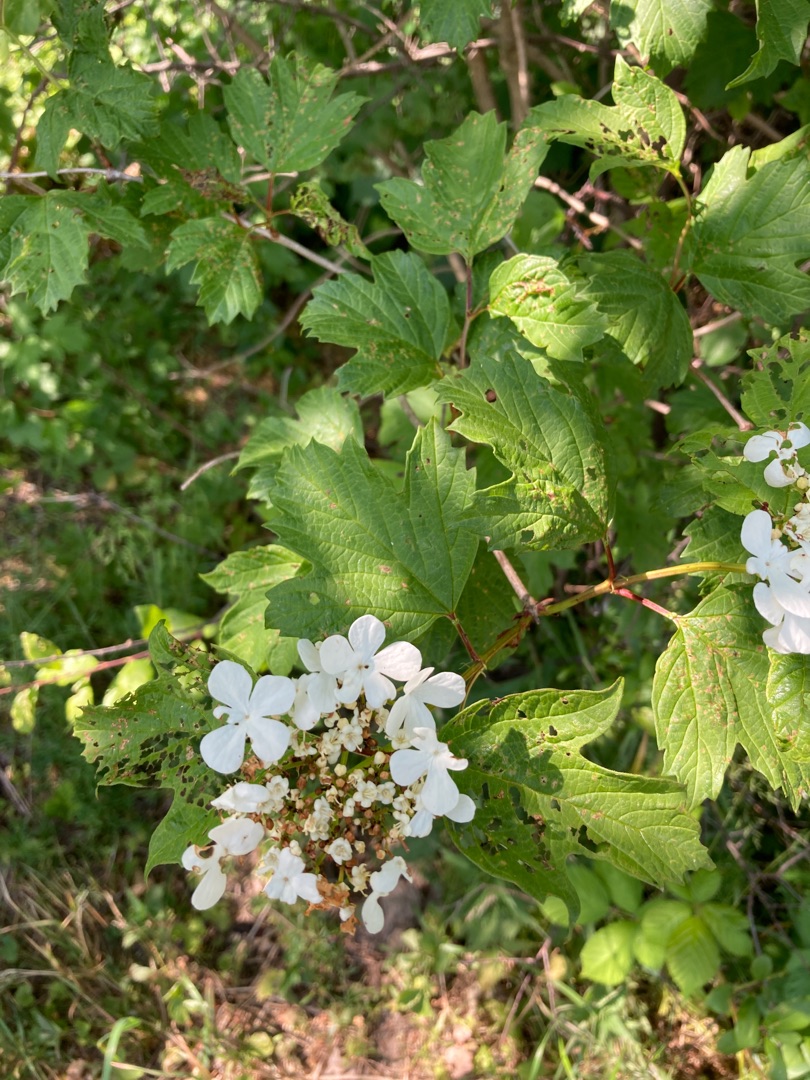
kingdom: Plantae
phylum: Tracheophyta
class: Magnoliopsida
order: Dipsacales
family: Viburnaceae
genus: Viburnum
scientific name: Viburnum opulus
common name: Kvalkved
